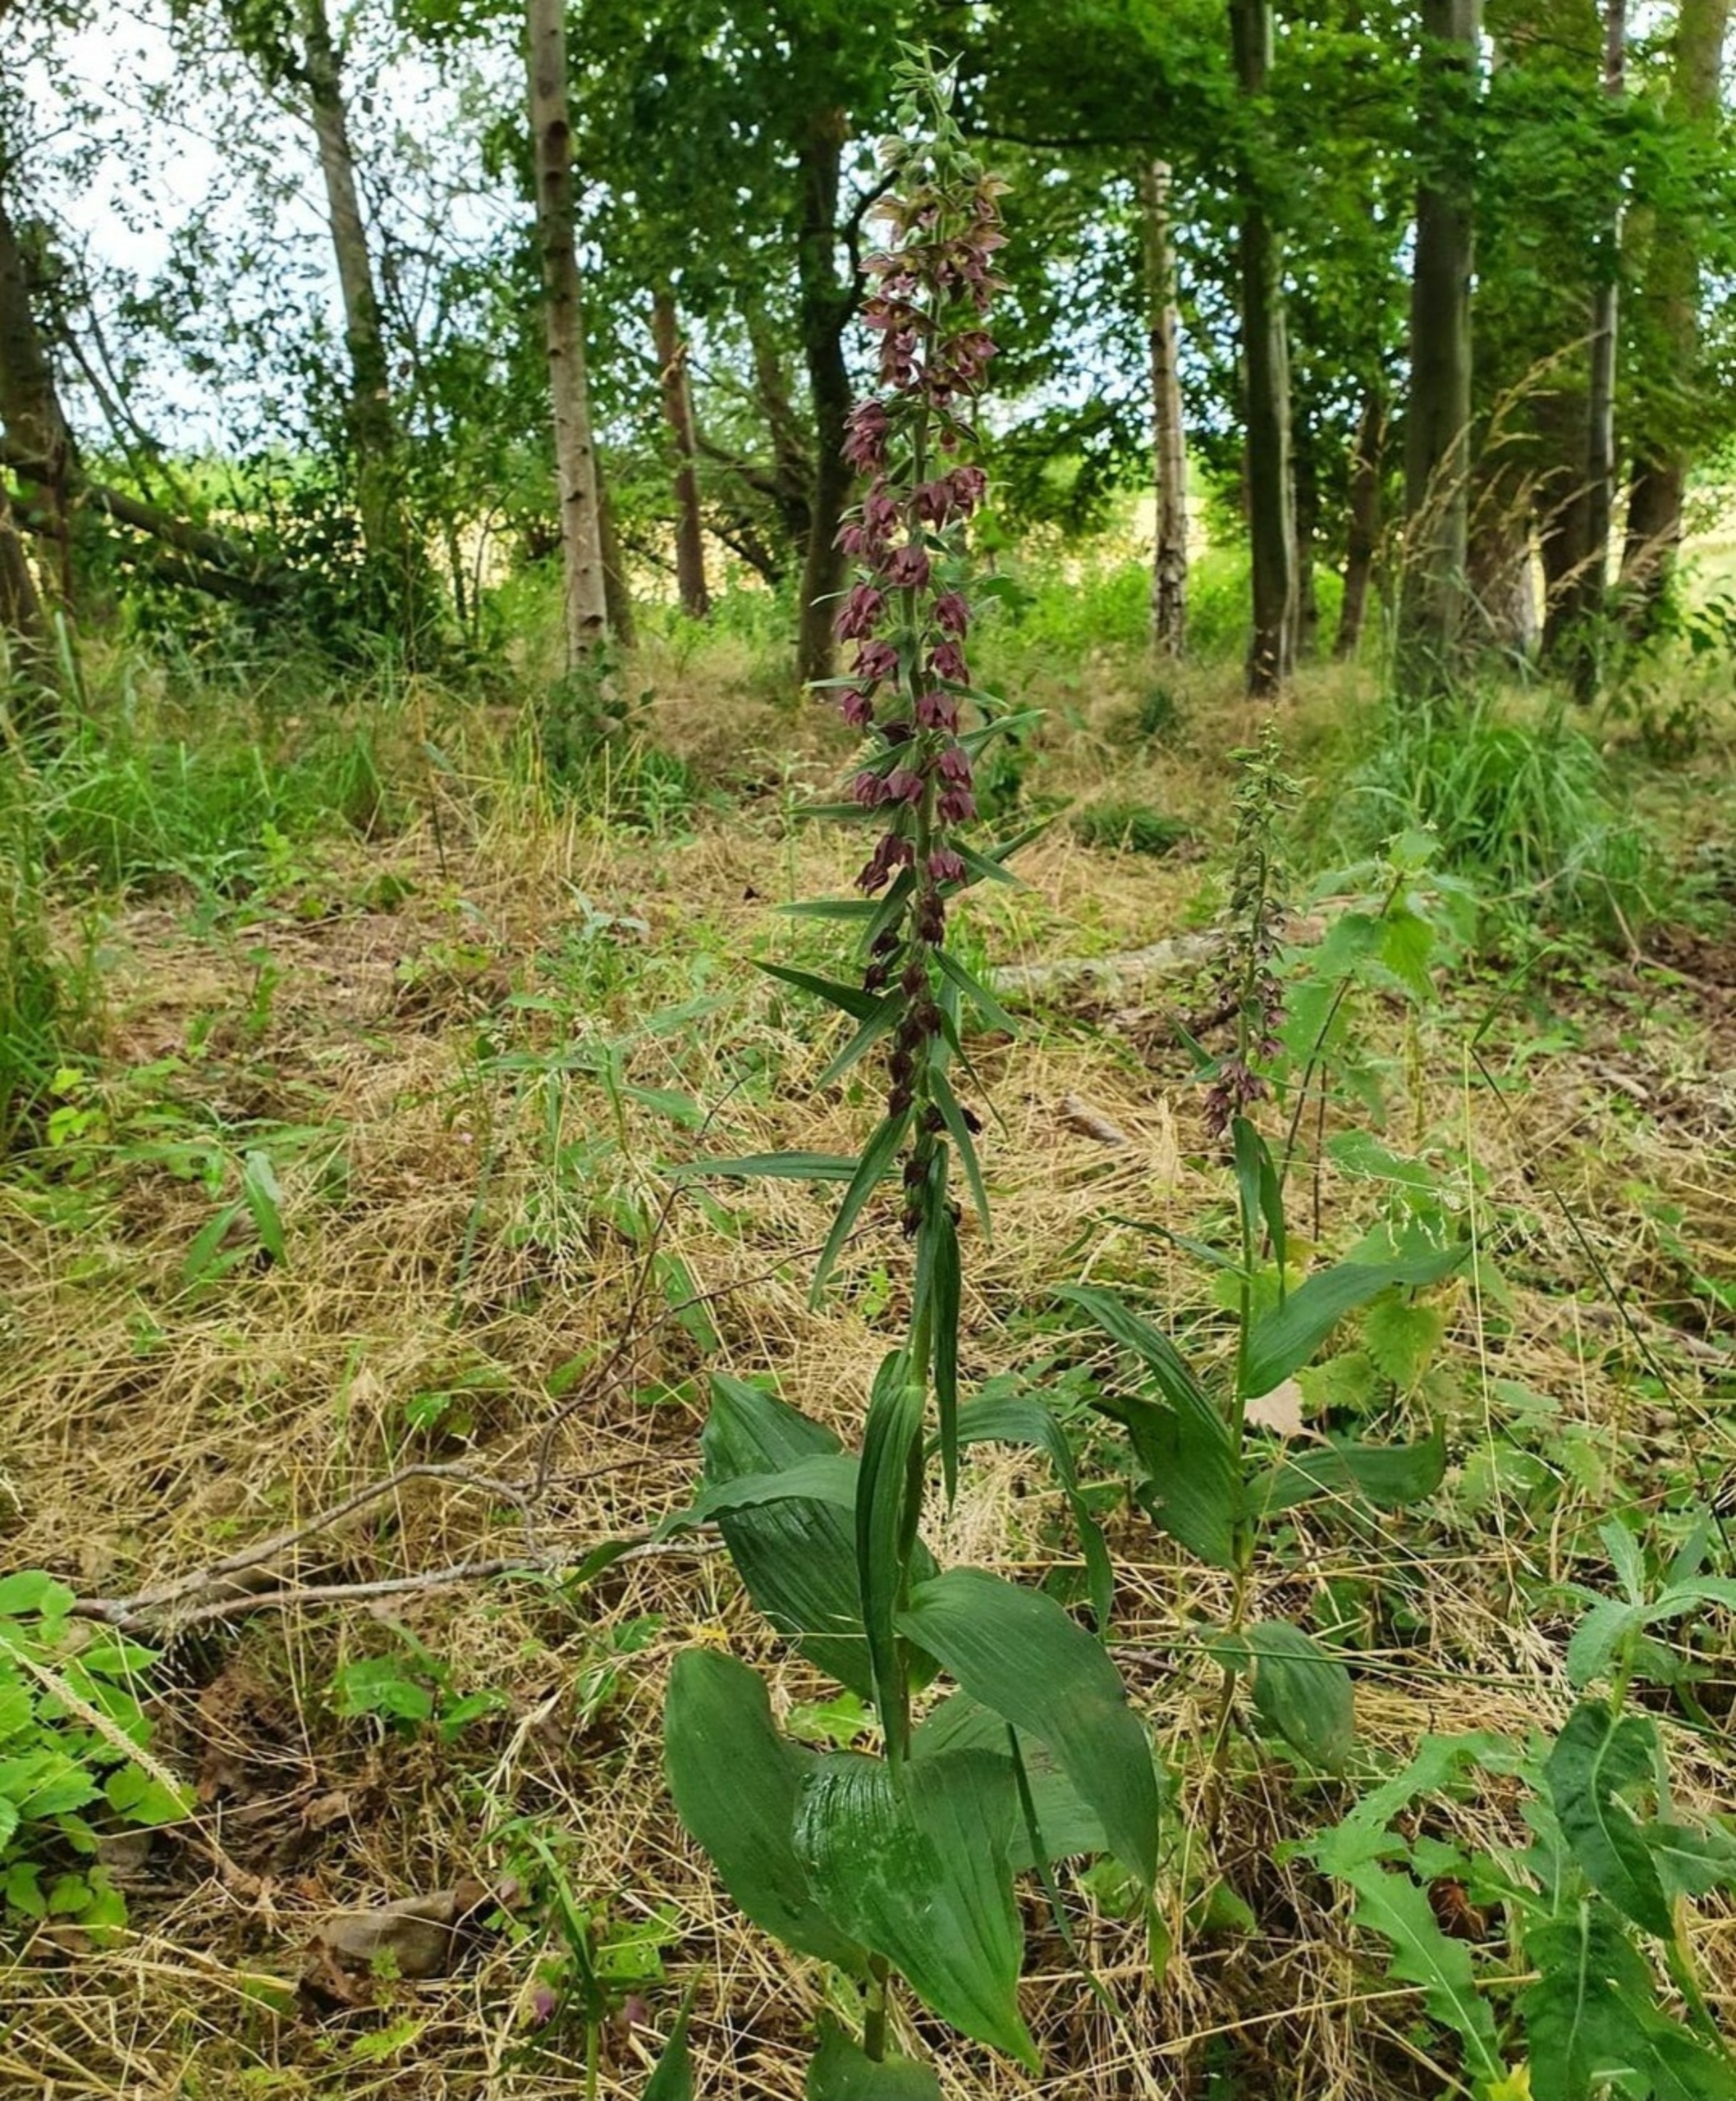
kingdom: Plantae
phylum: Tracheophyta
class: Liliopsida
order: Asparagales
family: Orchidaceae
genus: Epipactis
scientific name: Epipactis helleborine
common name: Skov-hullæbe
